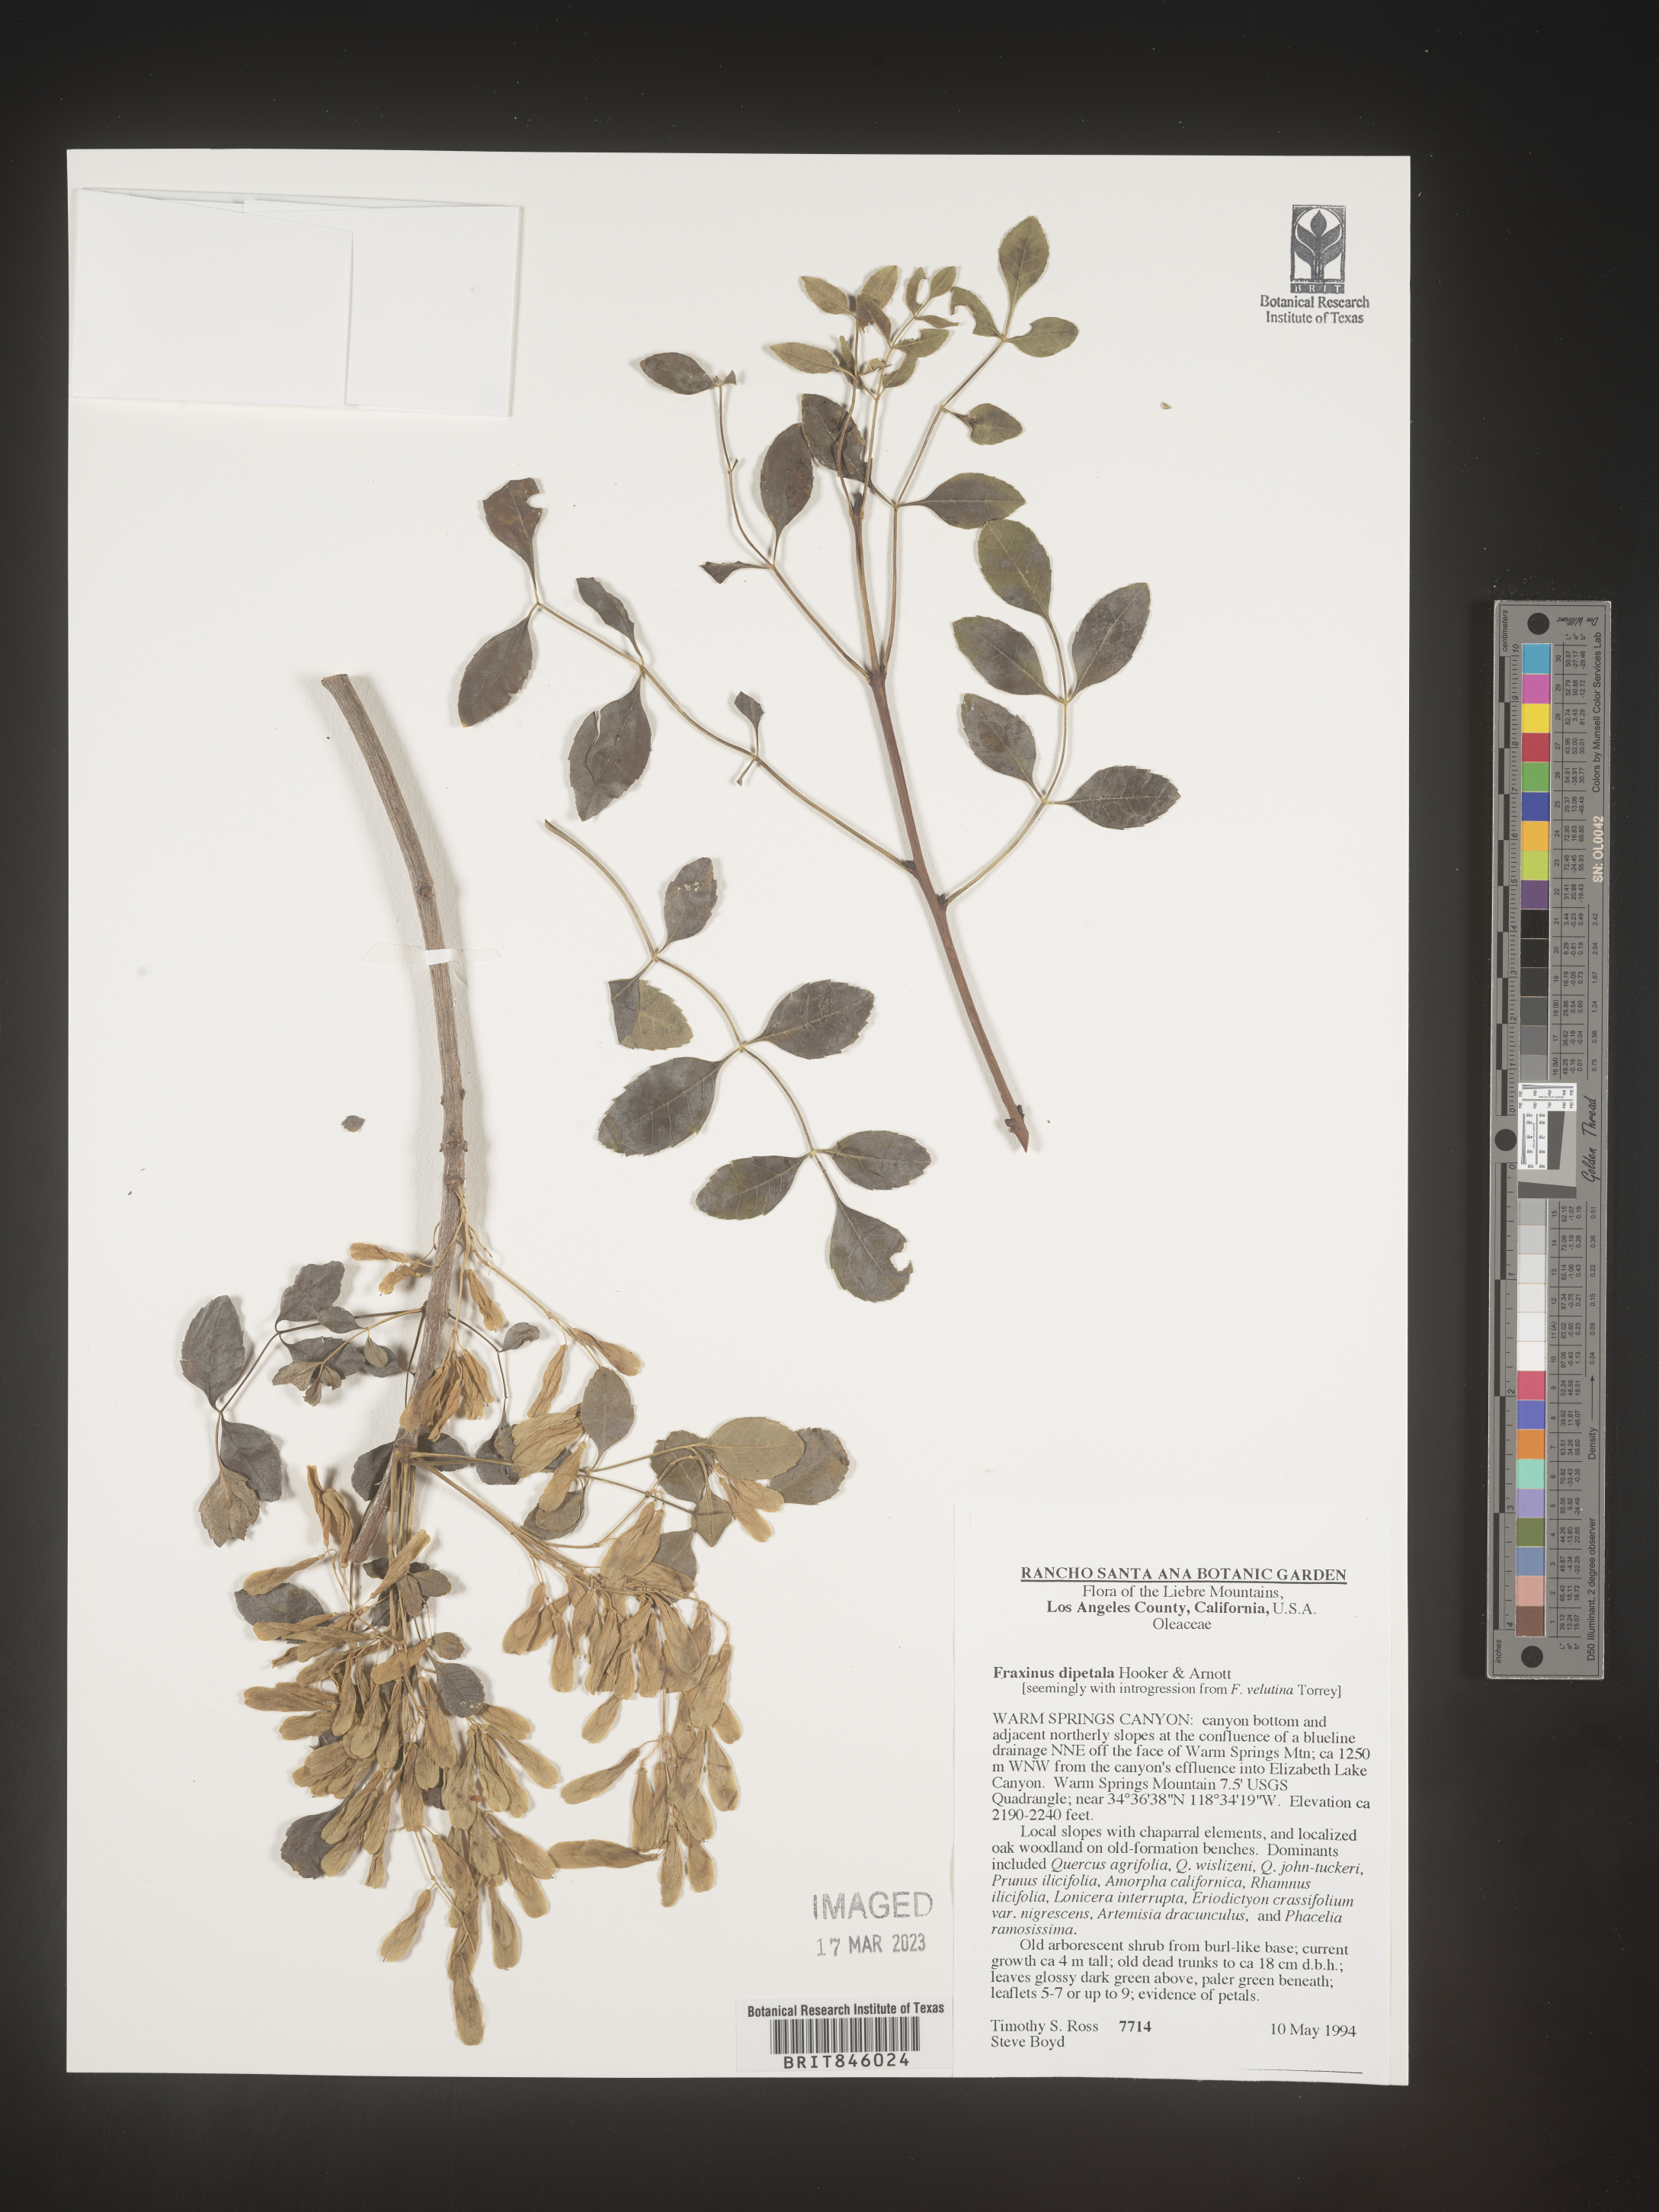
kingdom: Plantae
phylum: Tracheophyta
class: Magnoliopsida
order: Lamiales
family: Oleaceae
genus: Fraxinus
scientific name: Fraxinus dipetala
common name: California ash
